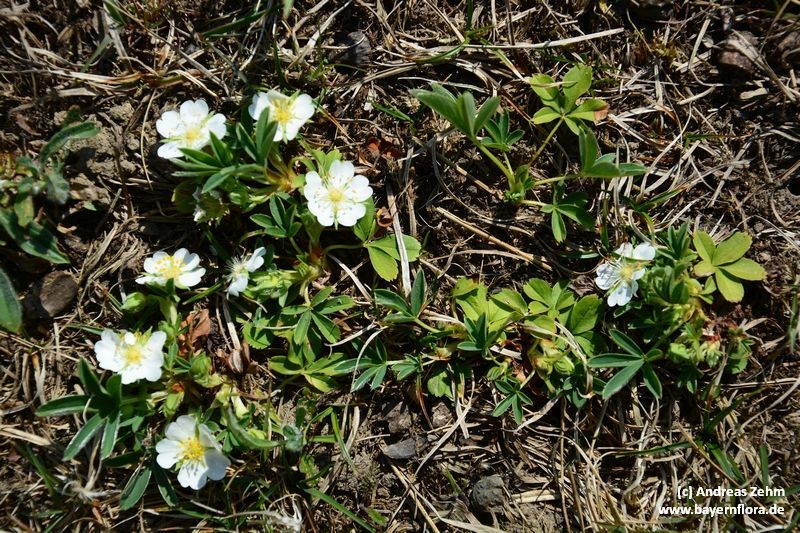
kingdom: Plantae
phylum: Tracheophyta
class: Magnoliopsida
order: Rosales
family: Rosaceae
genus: Potentilla
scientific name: Potentilla alba
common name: White cinquefoil
